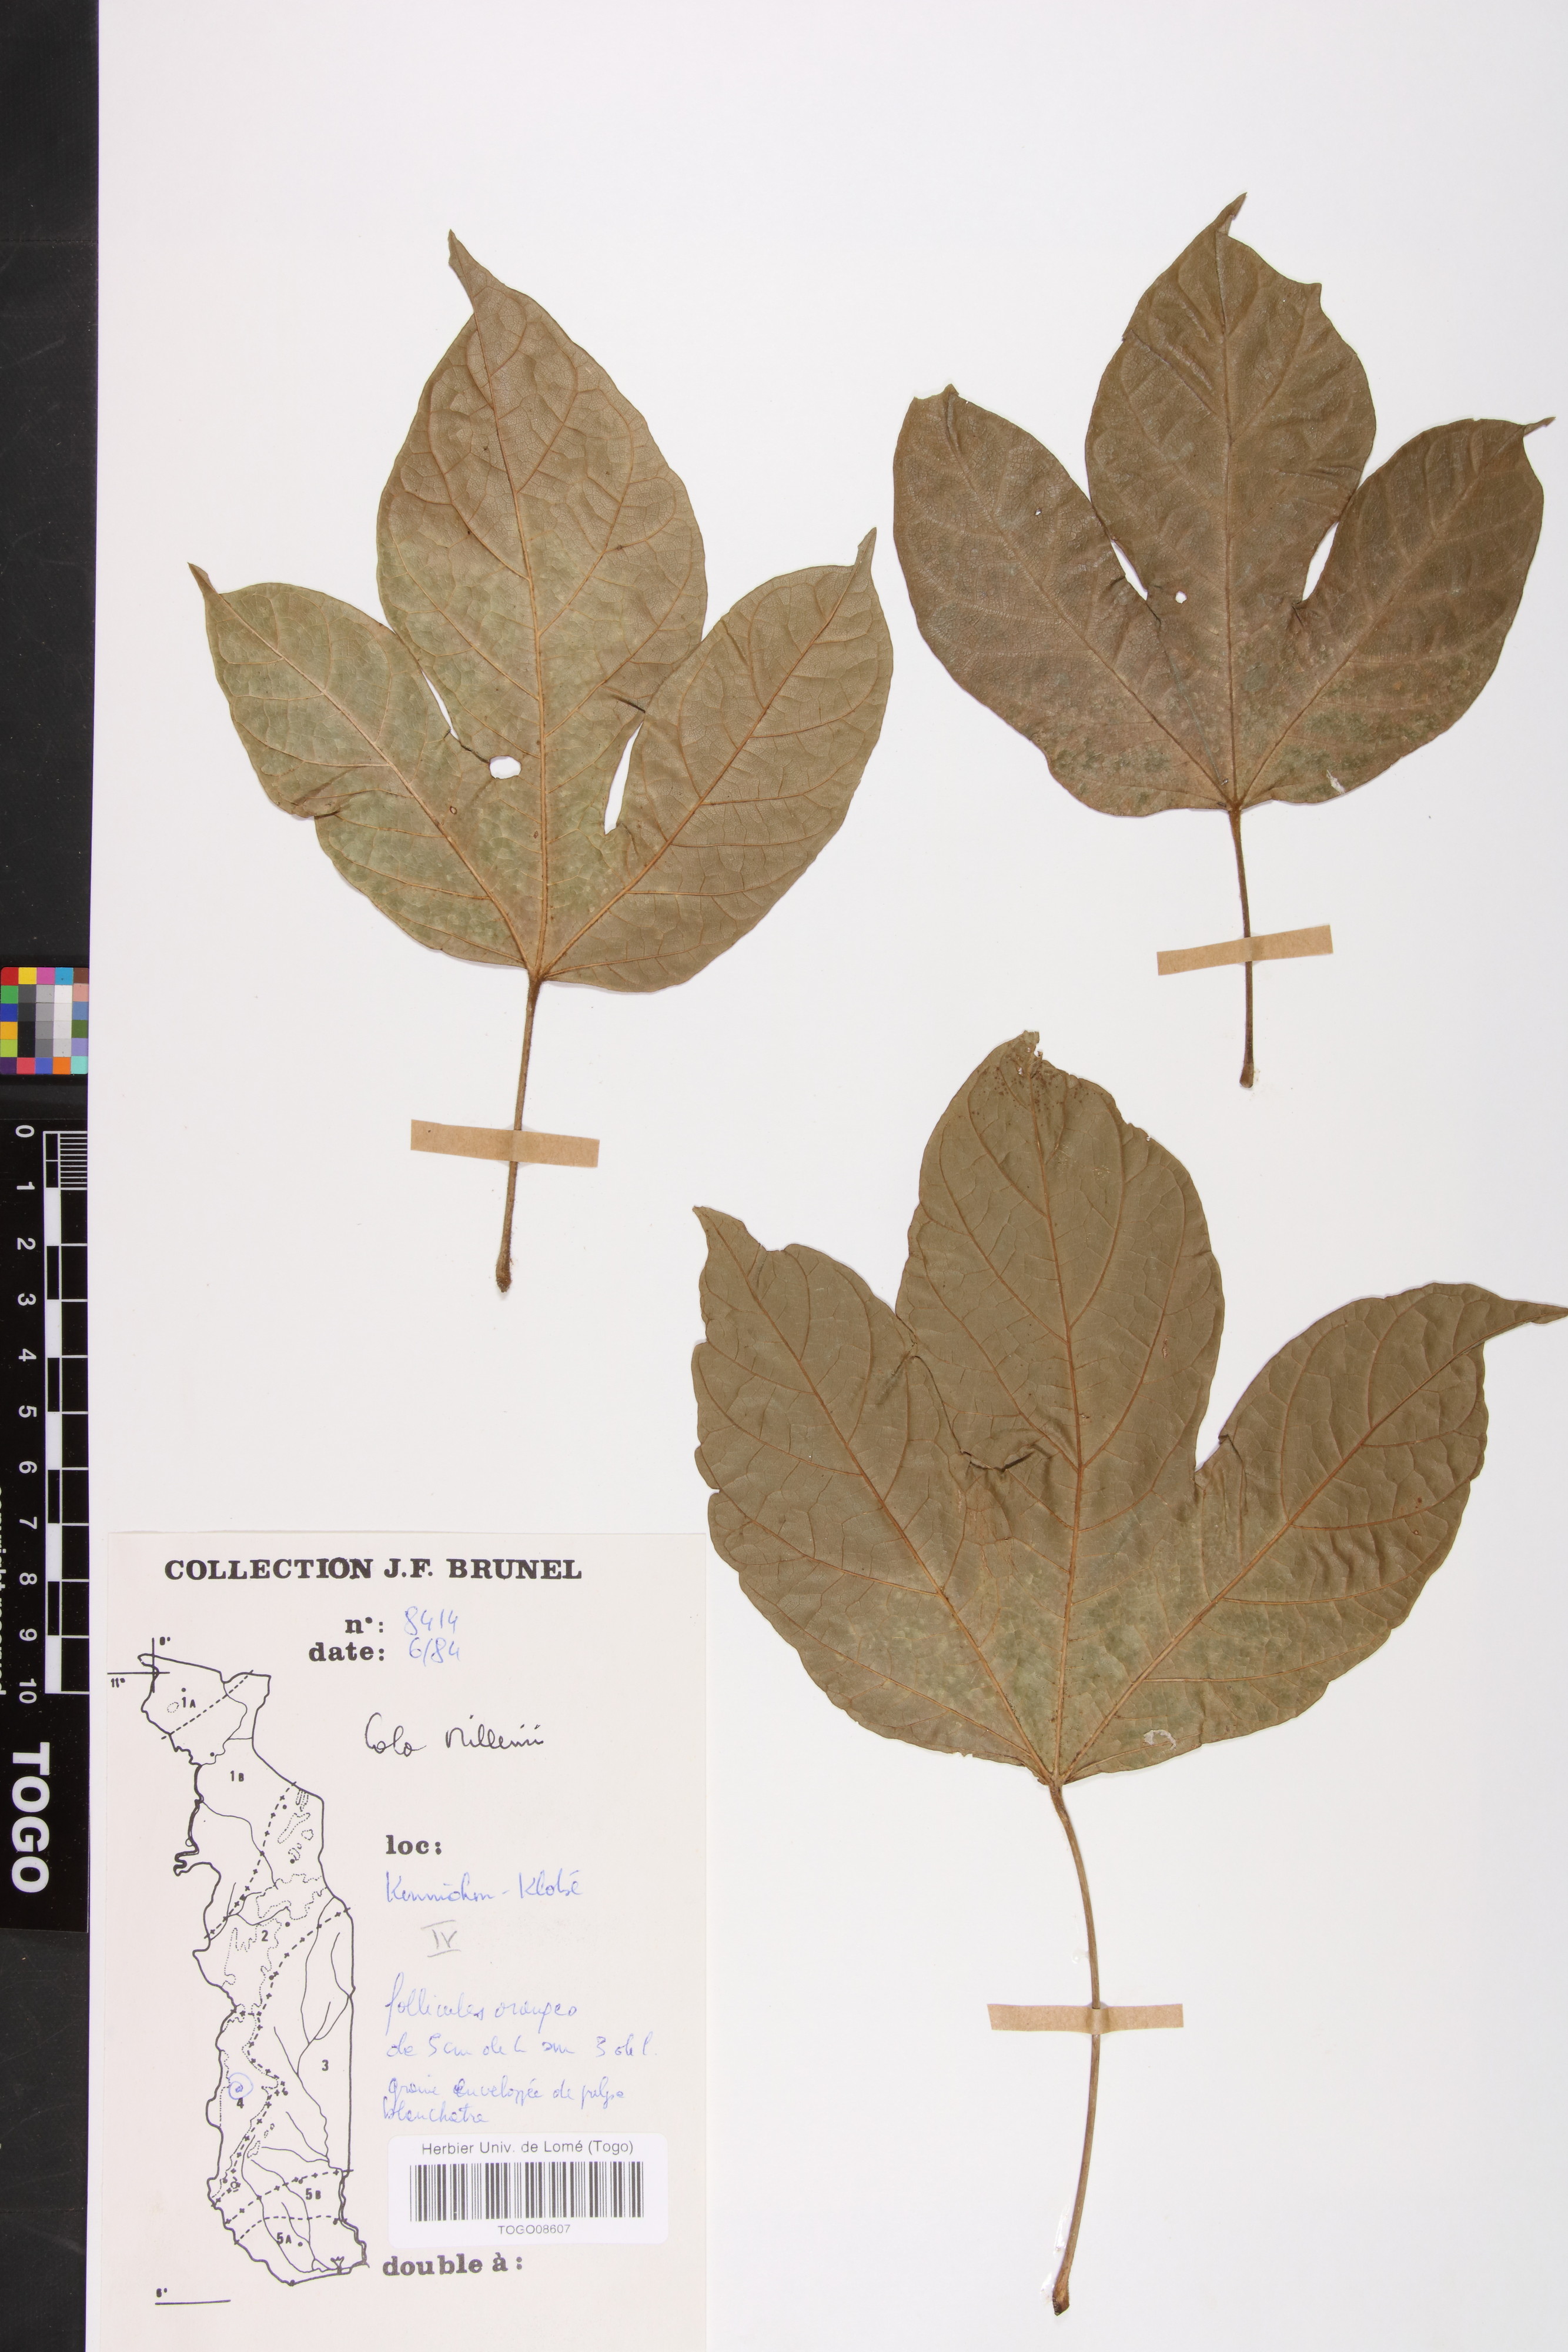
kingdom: Plantae
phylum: Tracheophyta
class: Magnoliopsida
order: Malvales
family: Malvaceae
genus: Cola
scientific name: Cola millenii
